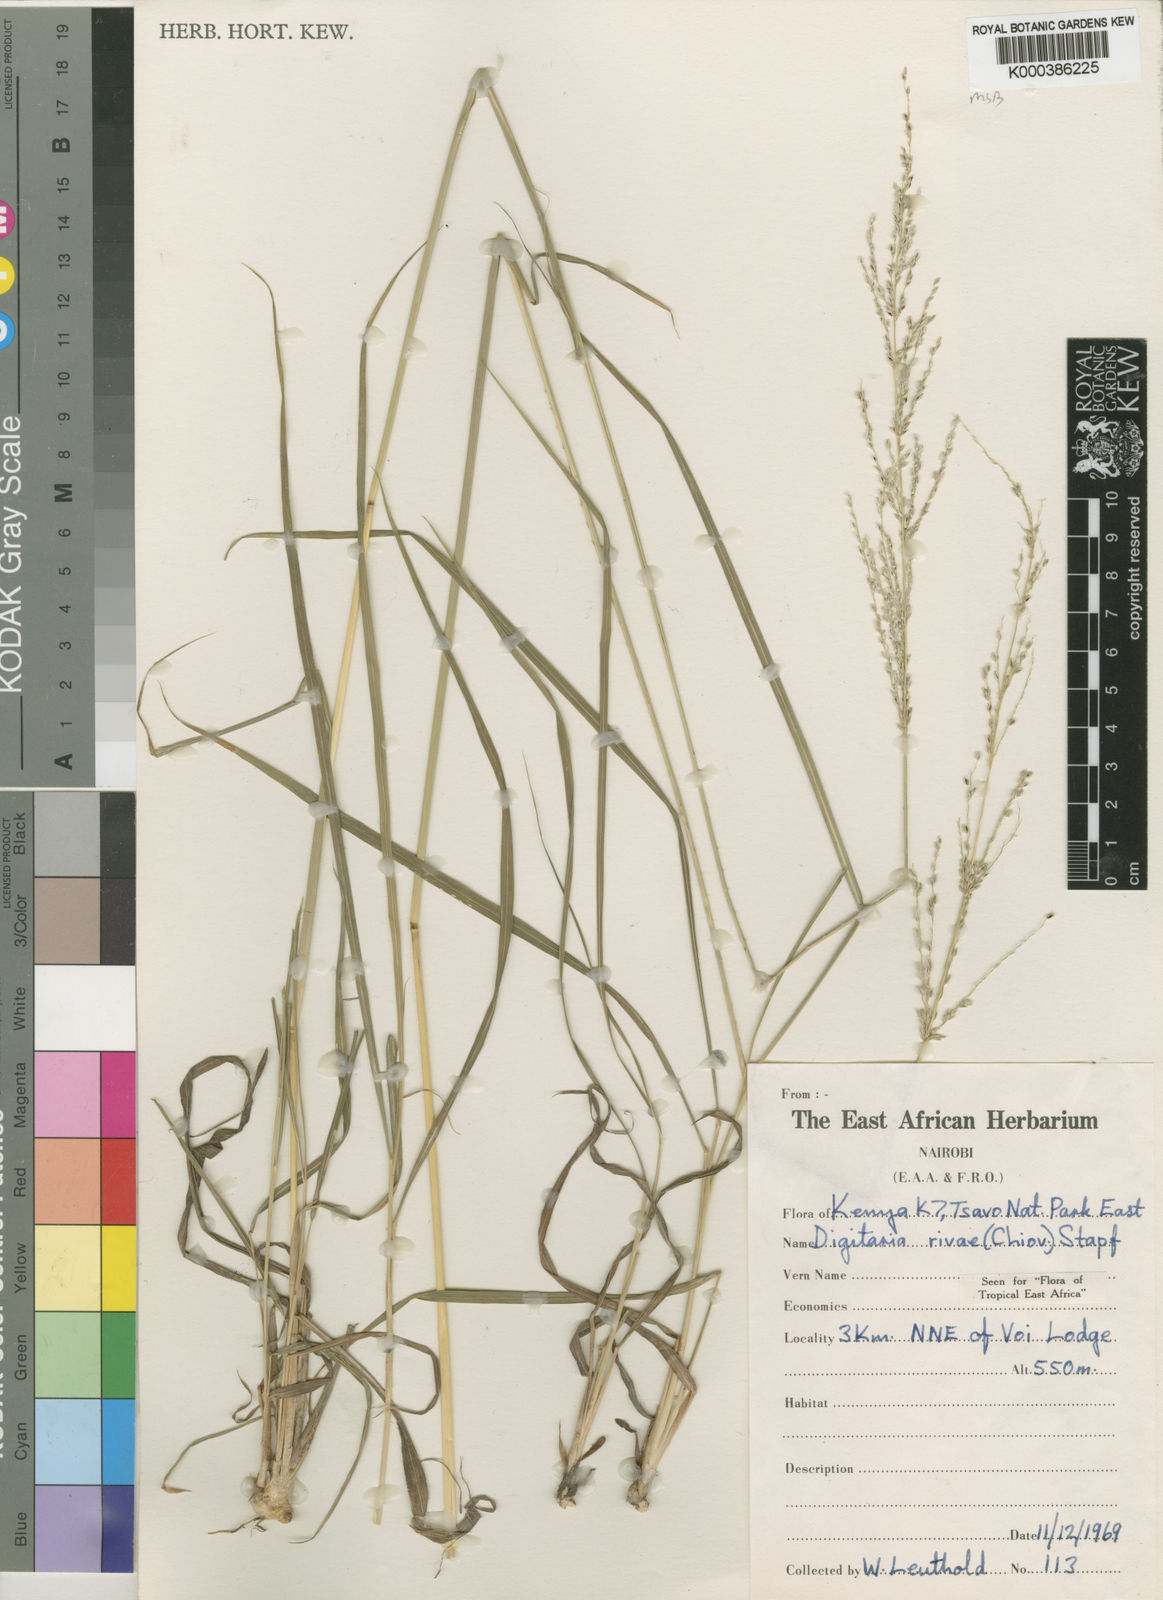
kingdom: Plantae
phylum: Tracheophyta
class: Liliopsida
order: Poales
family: Poaceae
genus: Digitaria
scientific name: Digitaria rivae
